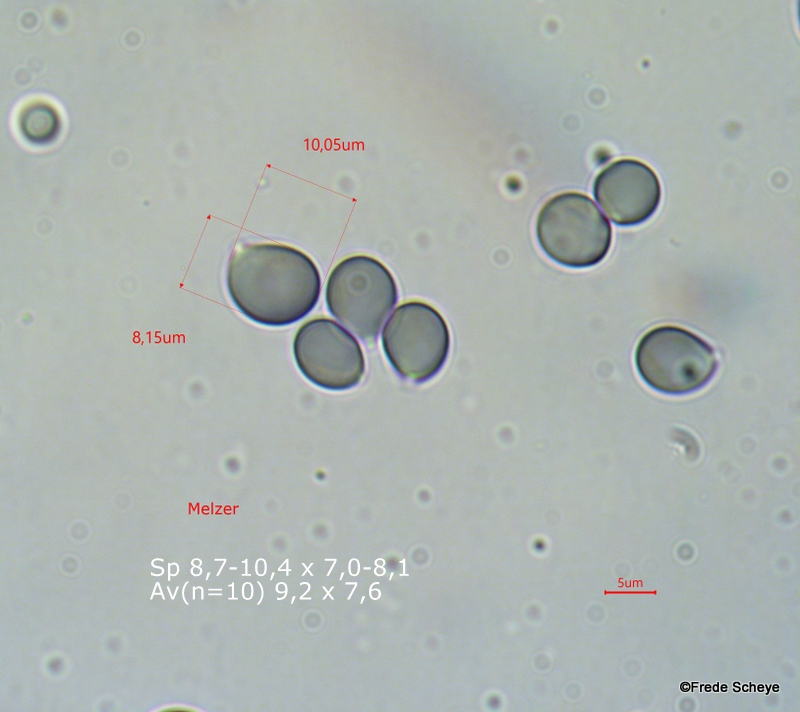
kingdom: Fungi
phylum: Basidiomycota
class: Agaricomycetes
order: Agaricales
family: Amanitaceae
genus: Amanita
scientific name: Amanita phalloides
